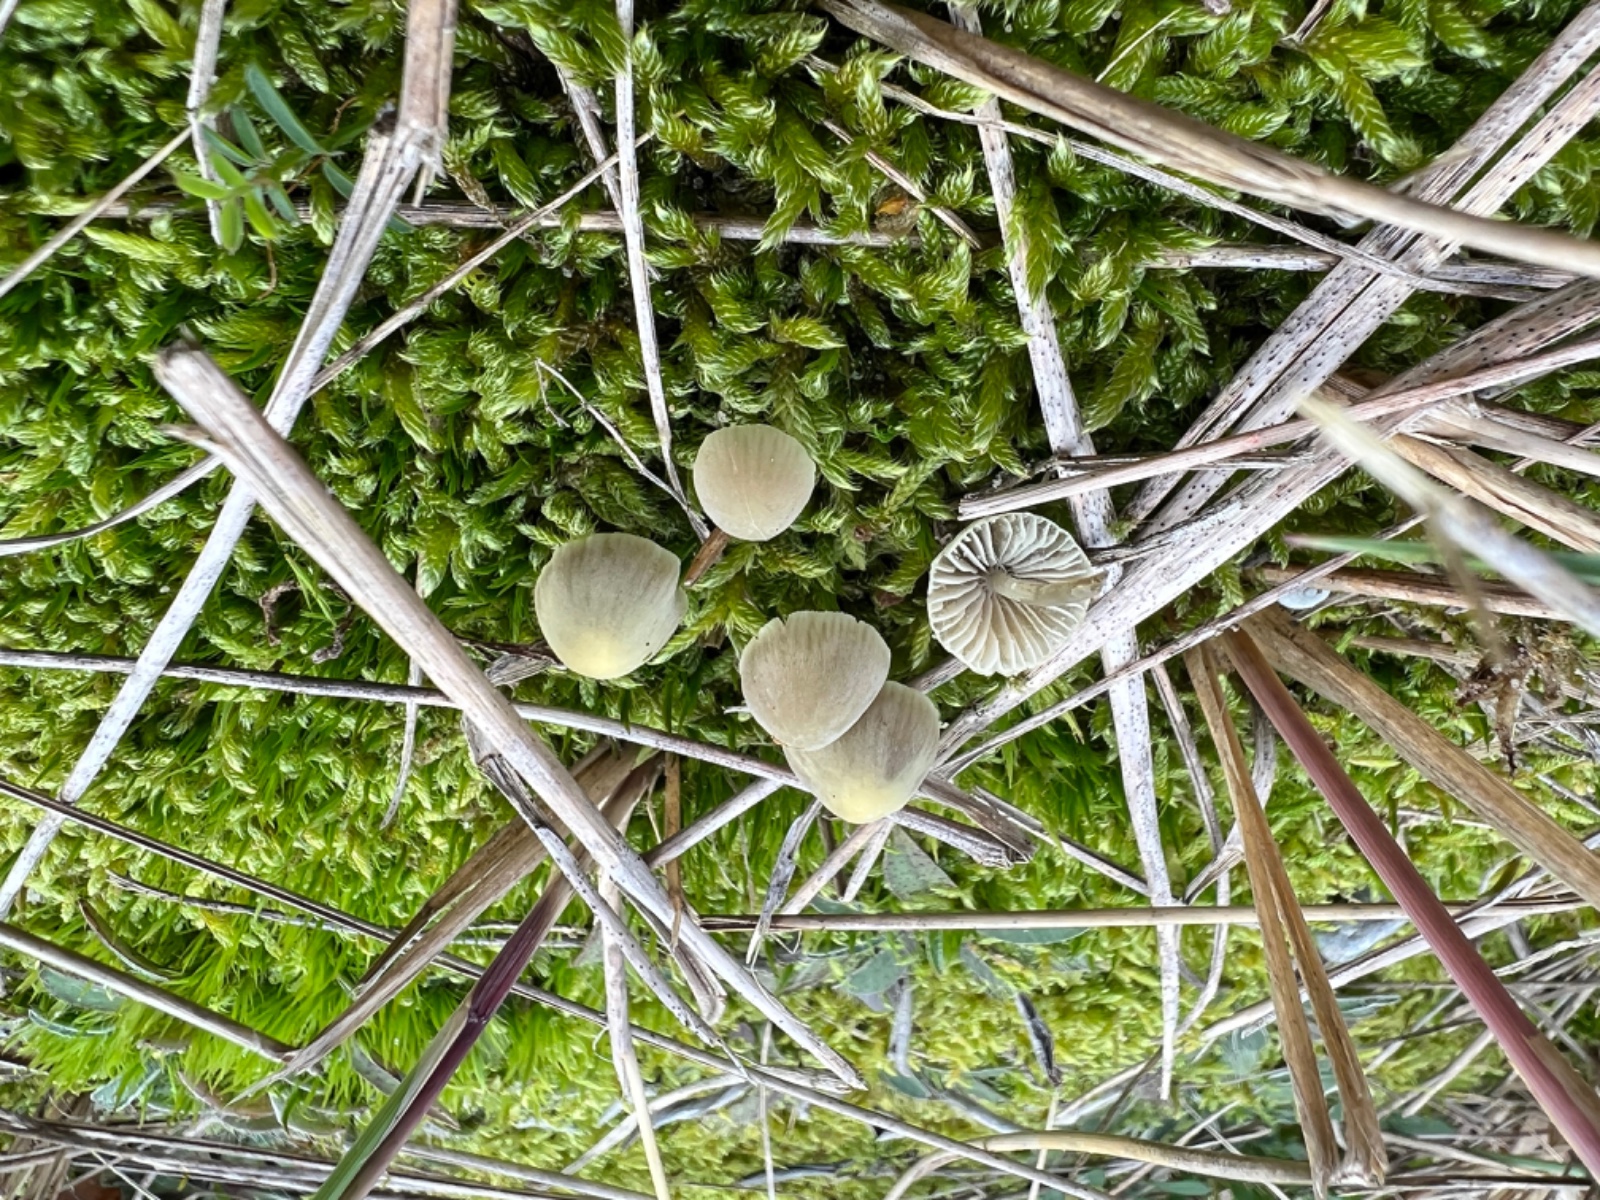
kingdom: Fungi
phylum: Basidiomycota
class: Agaricomycetes
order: Agaricales
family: Mycenaceae
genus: Mycena
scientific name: Mycena chlorantha
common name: klit-huesvamp
